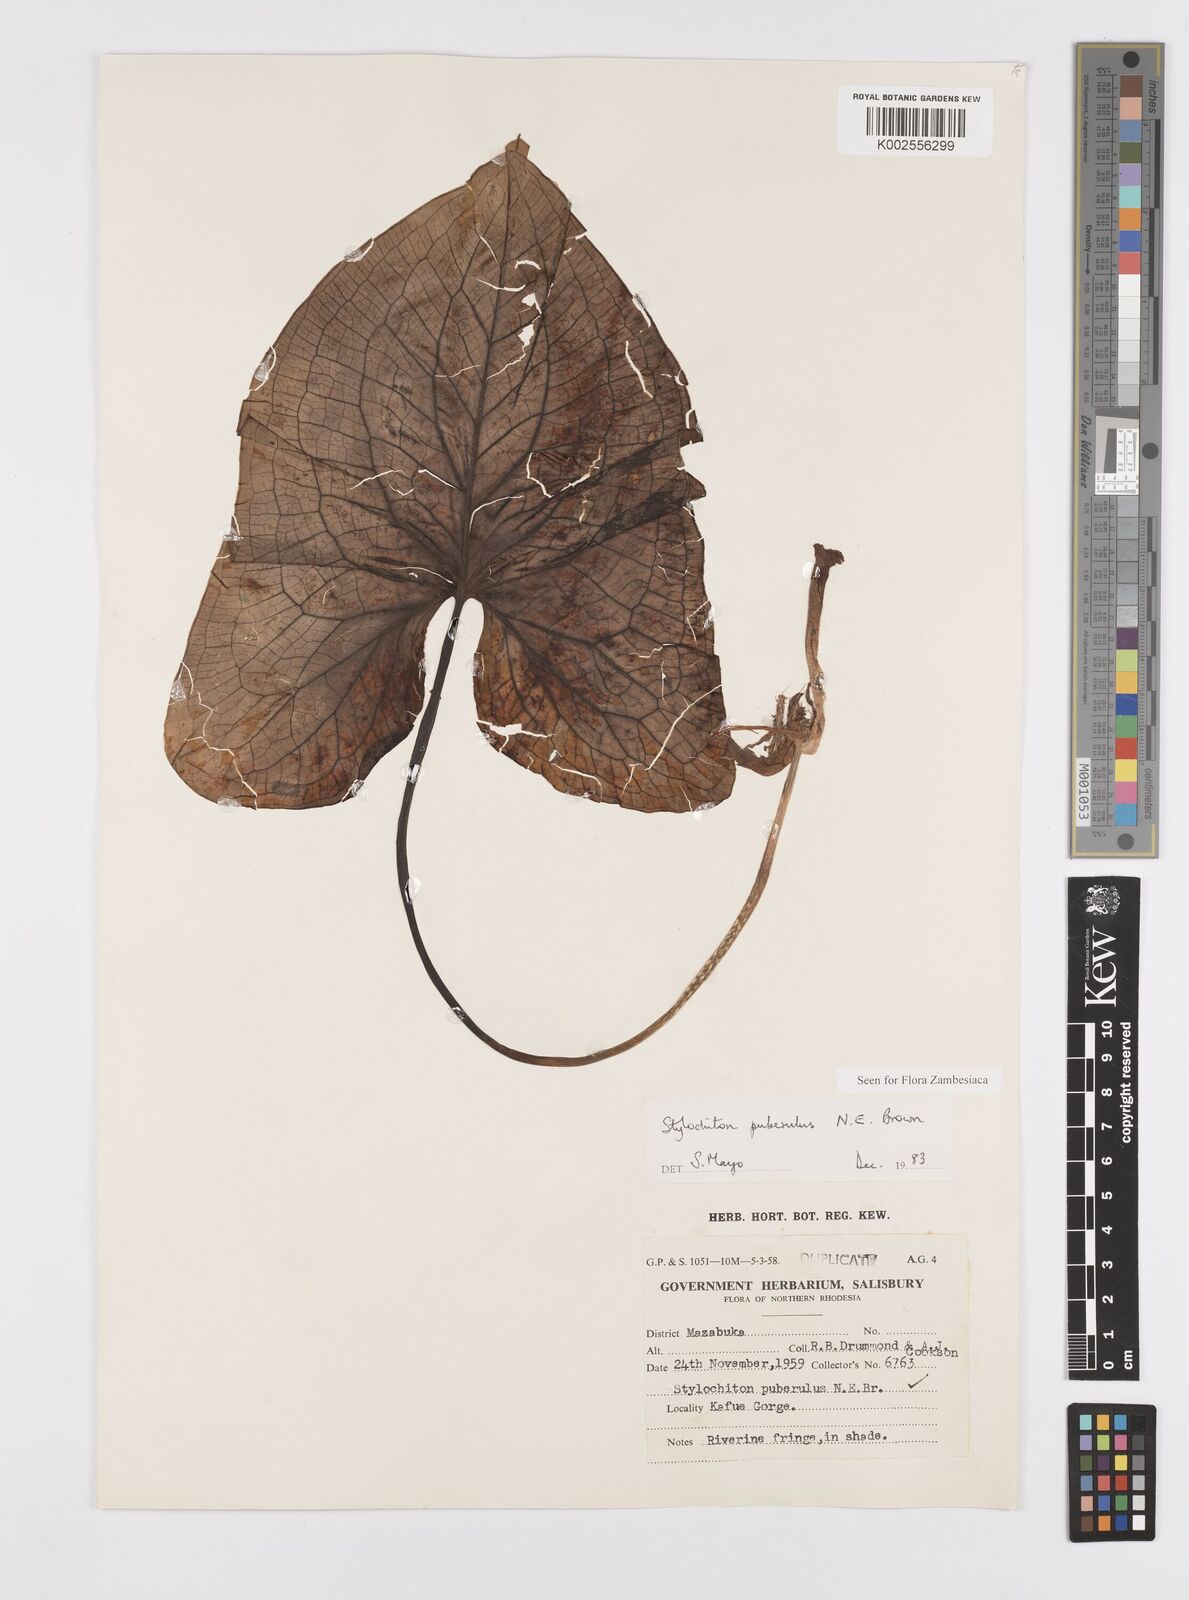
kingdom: Plantae
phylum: Tracheophyta
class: Liliopsida
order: Alismatales
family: Araceae
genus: Stylochaeton
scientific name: Stylochaeton puberulum
